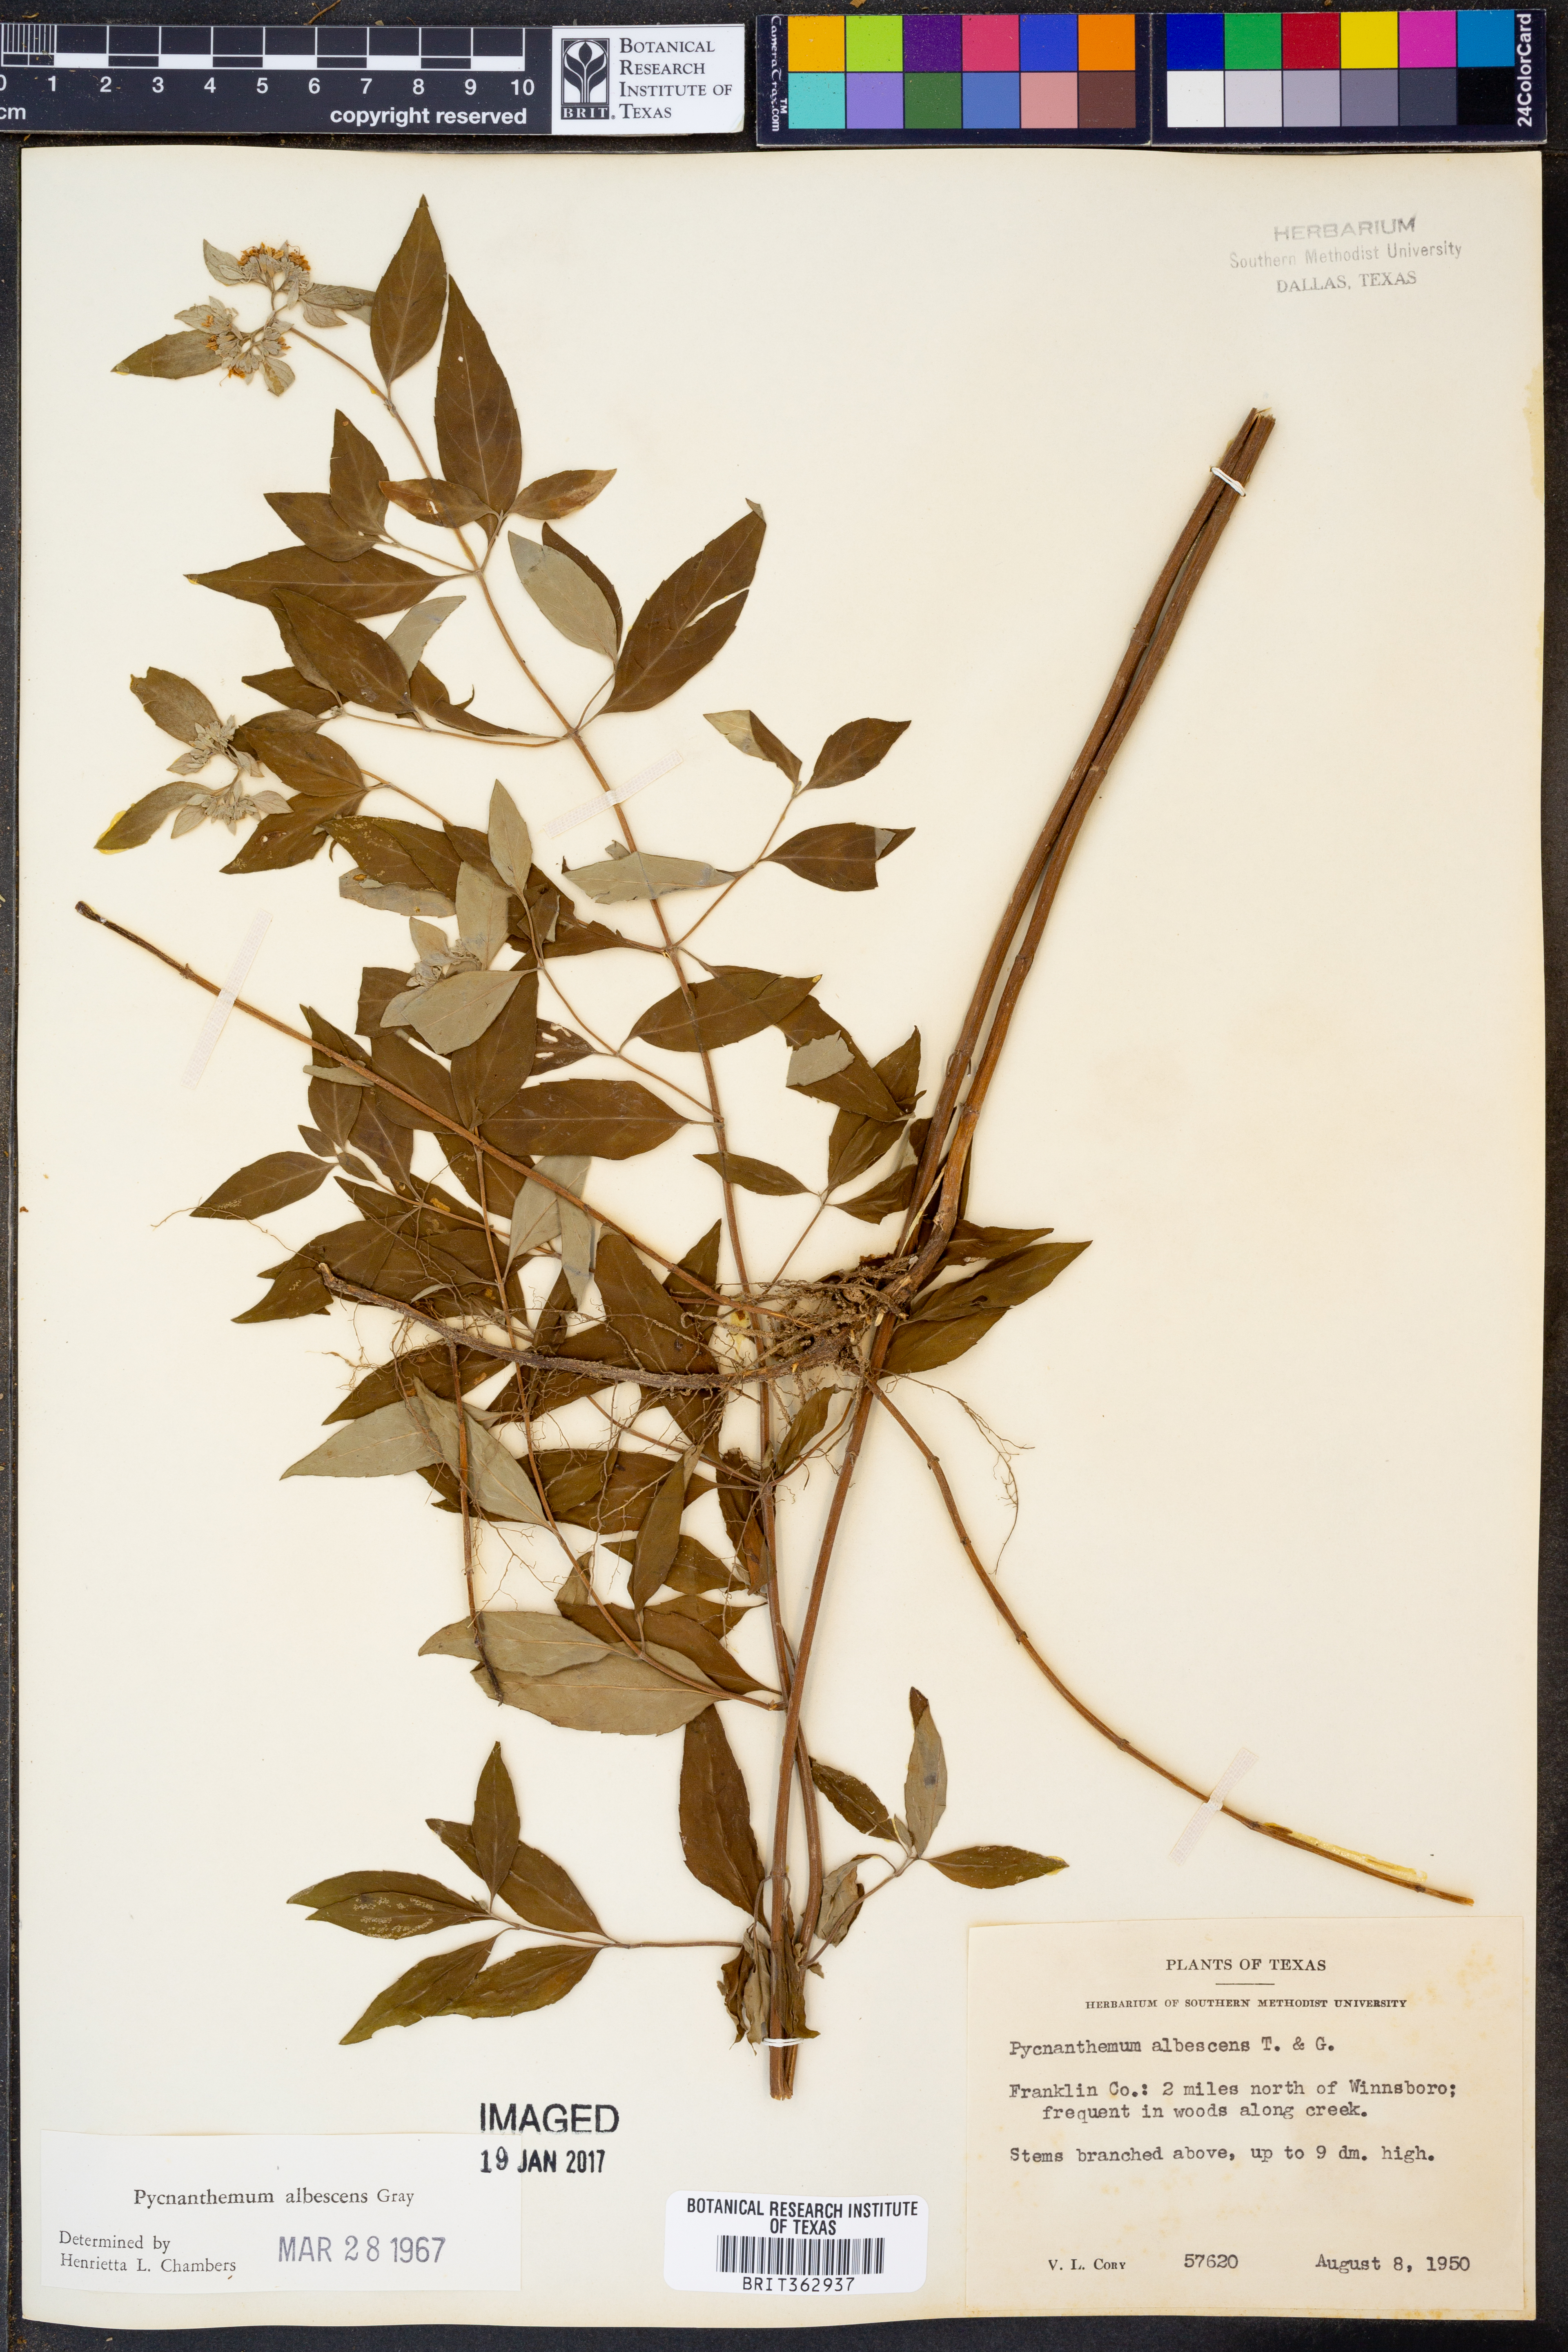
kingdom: Plantae
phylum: Tracheophyta
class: Magnoliopsida
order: Lamiales
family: Lamiaceae
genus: Pycnanthemum
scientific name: Pycnanthemum albescens
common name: White-leaf mountain-mint
